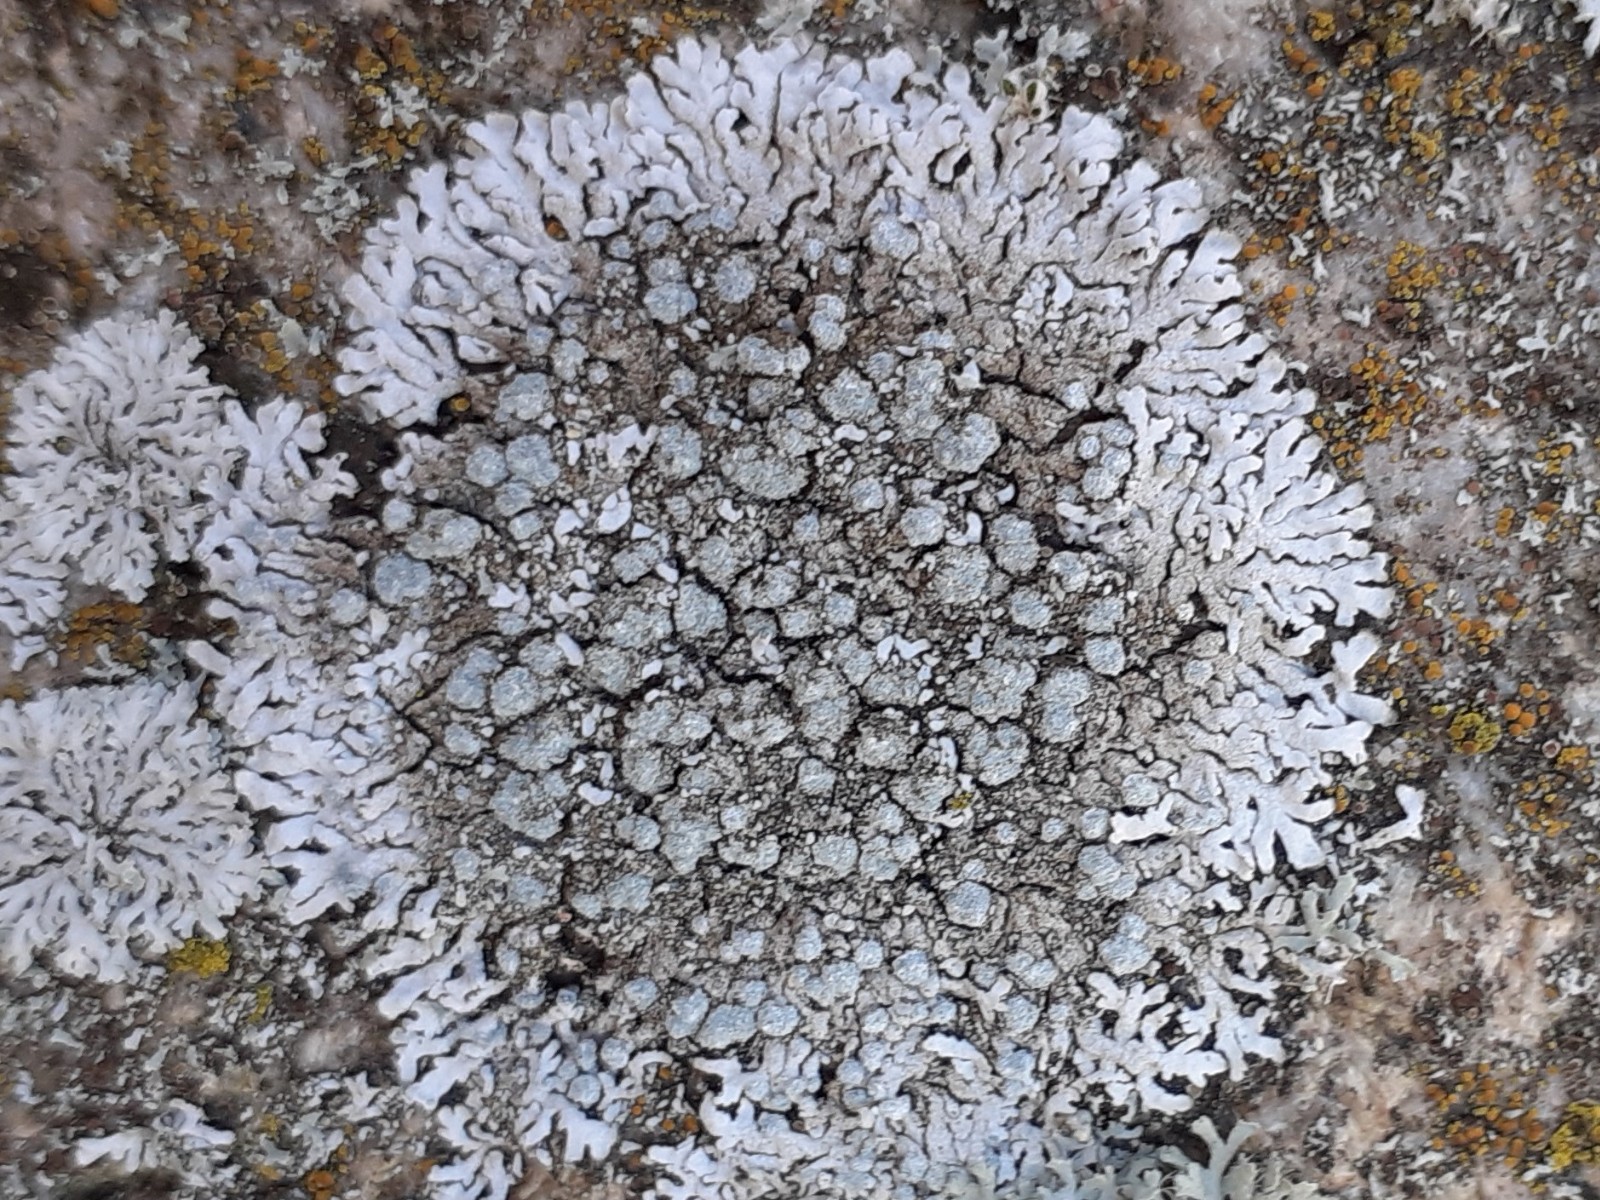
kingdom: Fungi
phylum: Ascomycota
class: Lecanoromycetes
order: Caliciales
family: Physciaceae
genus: Physcia
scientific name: Physcia caesia
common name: blågrå rosetlav
